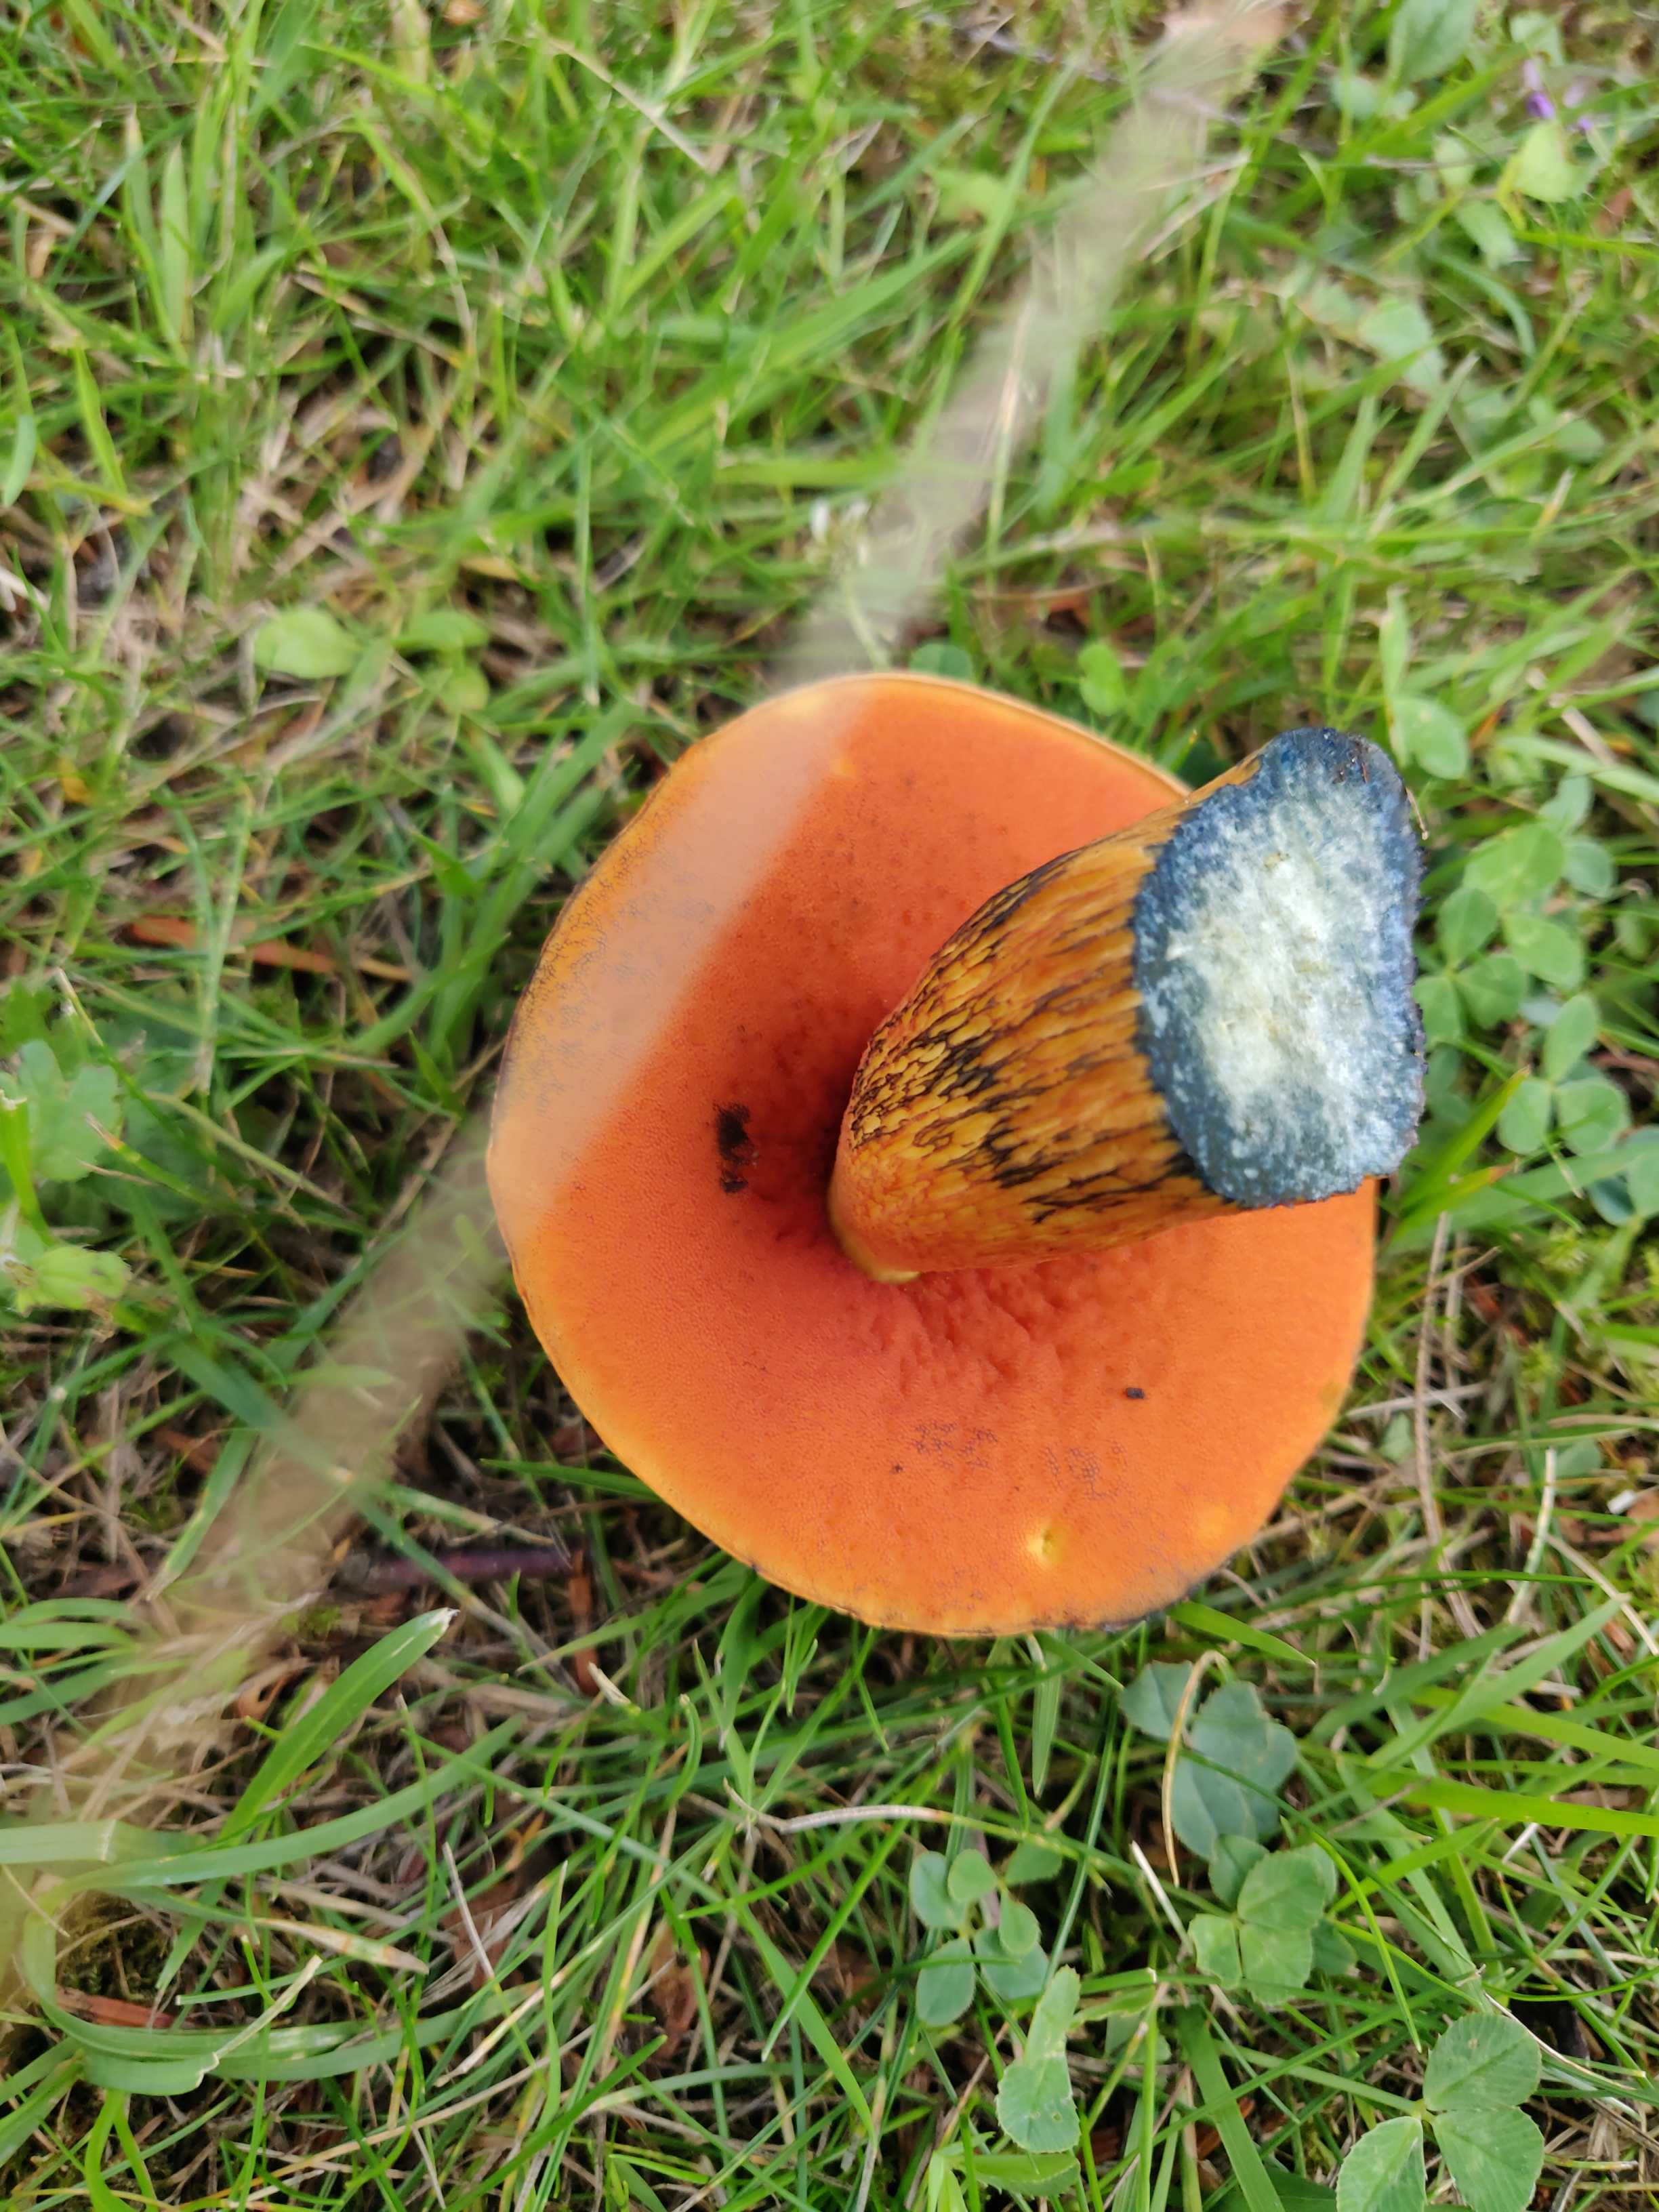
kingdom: Fungi
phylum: Basidiomycota
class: Agaricomycetes
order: Boletales
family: Boletaceae
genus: Suillellus
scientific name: Suillellus luridus
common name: netstokket indigorørhat
